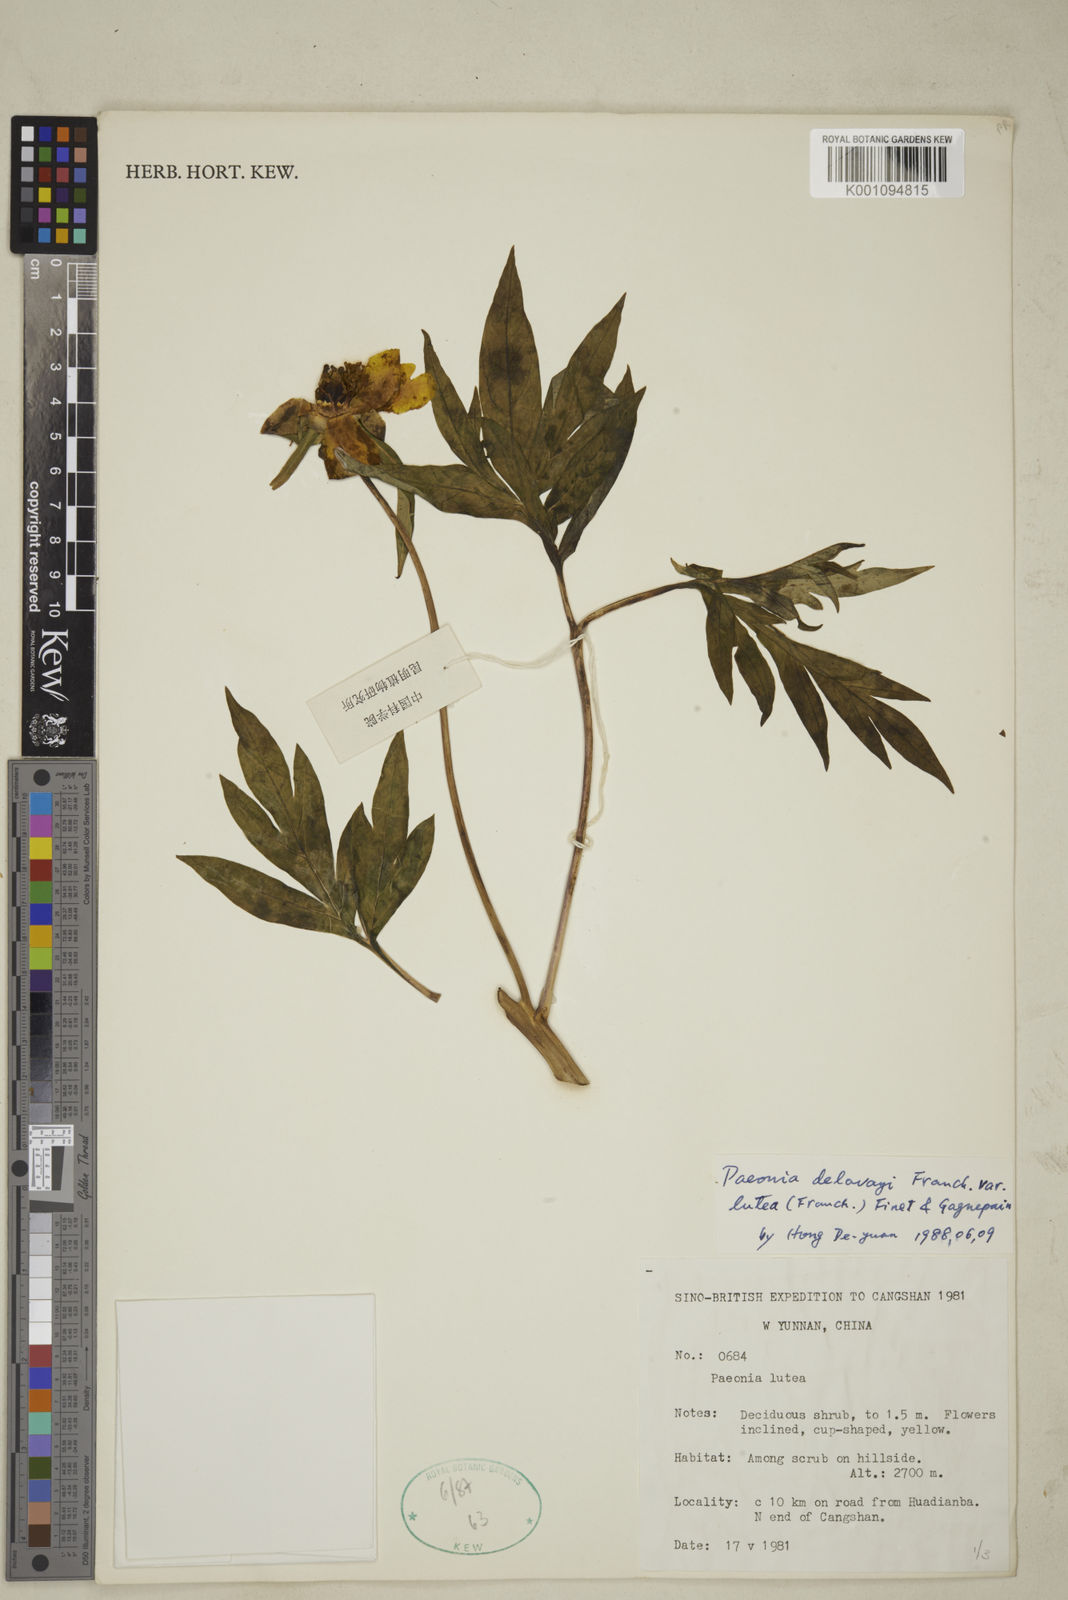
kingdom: Plantae
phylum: Tracheophyta
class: Magnoliopsida
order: Saxifragales
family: Paeoniaceae
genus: Paeonia
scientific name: Paeonia delavayi
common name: Dian mu dan
